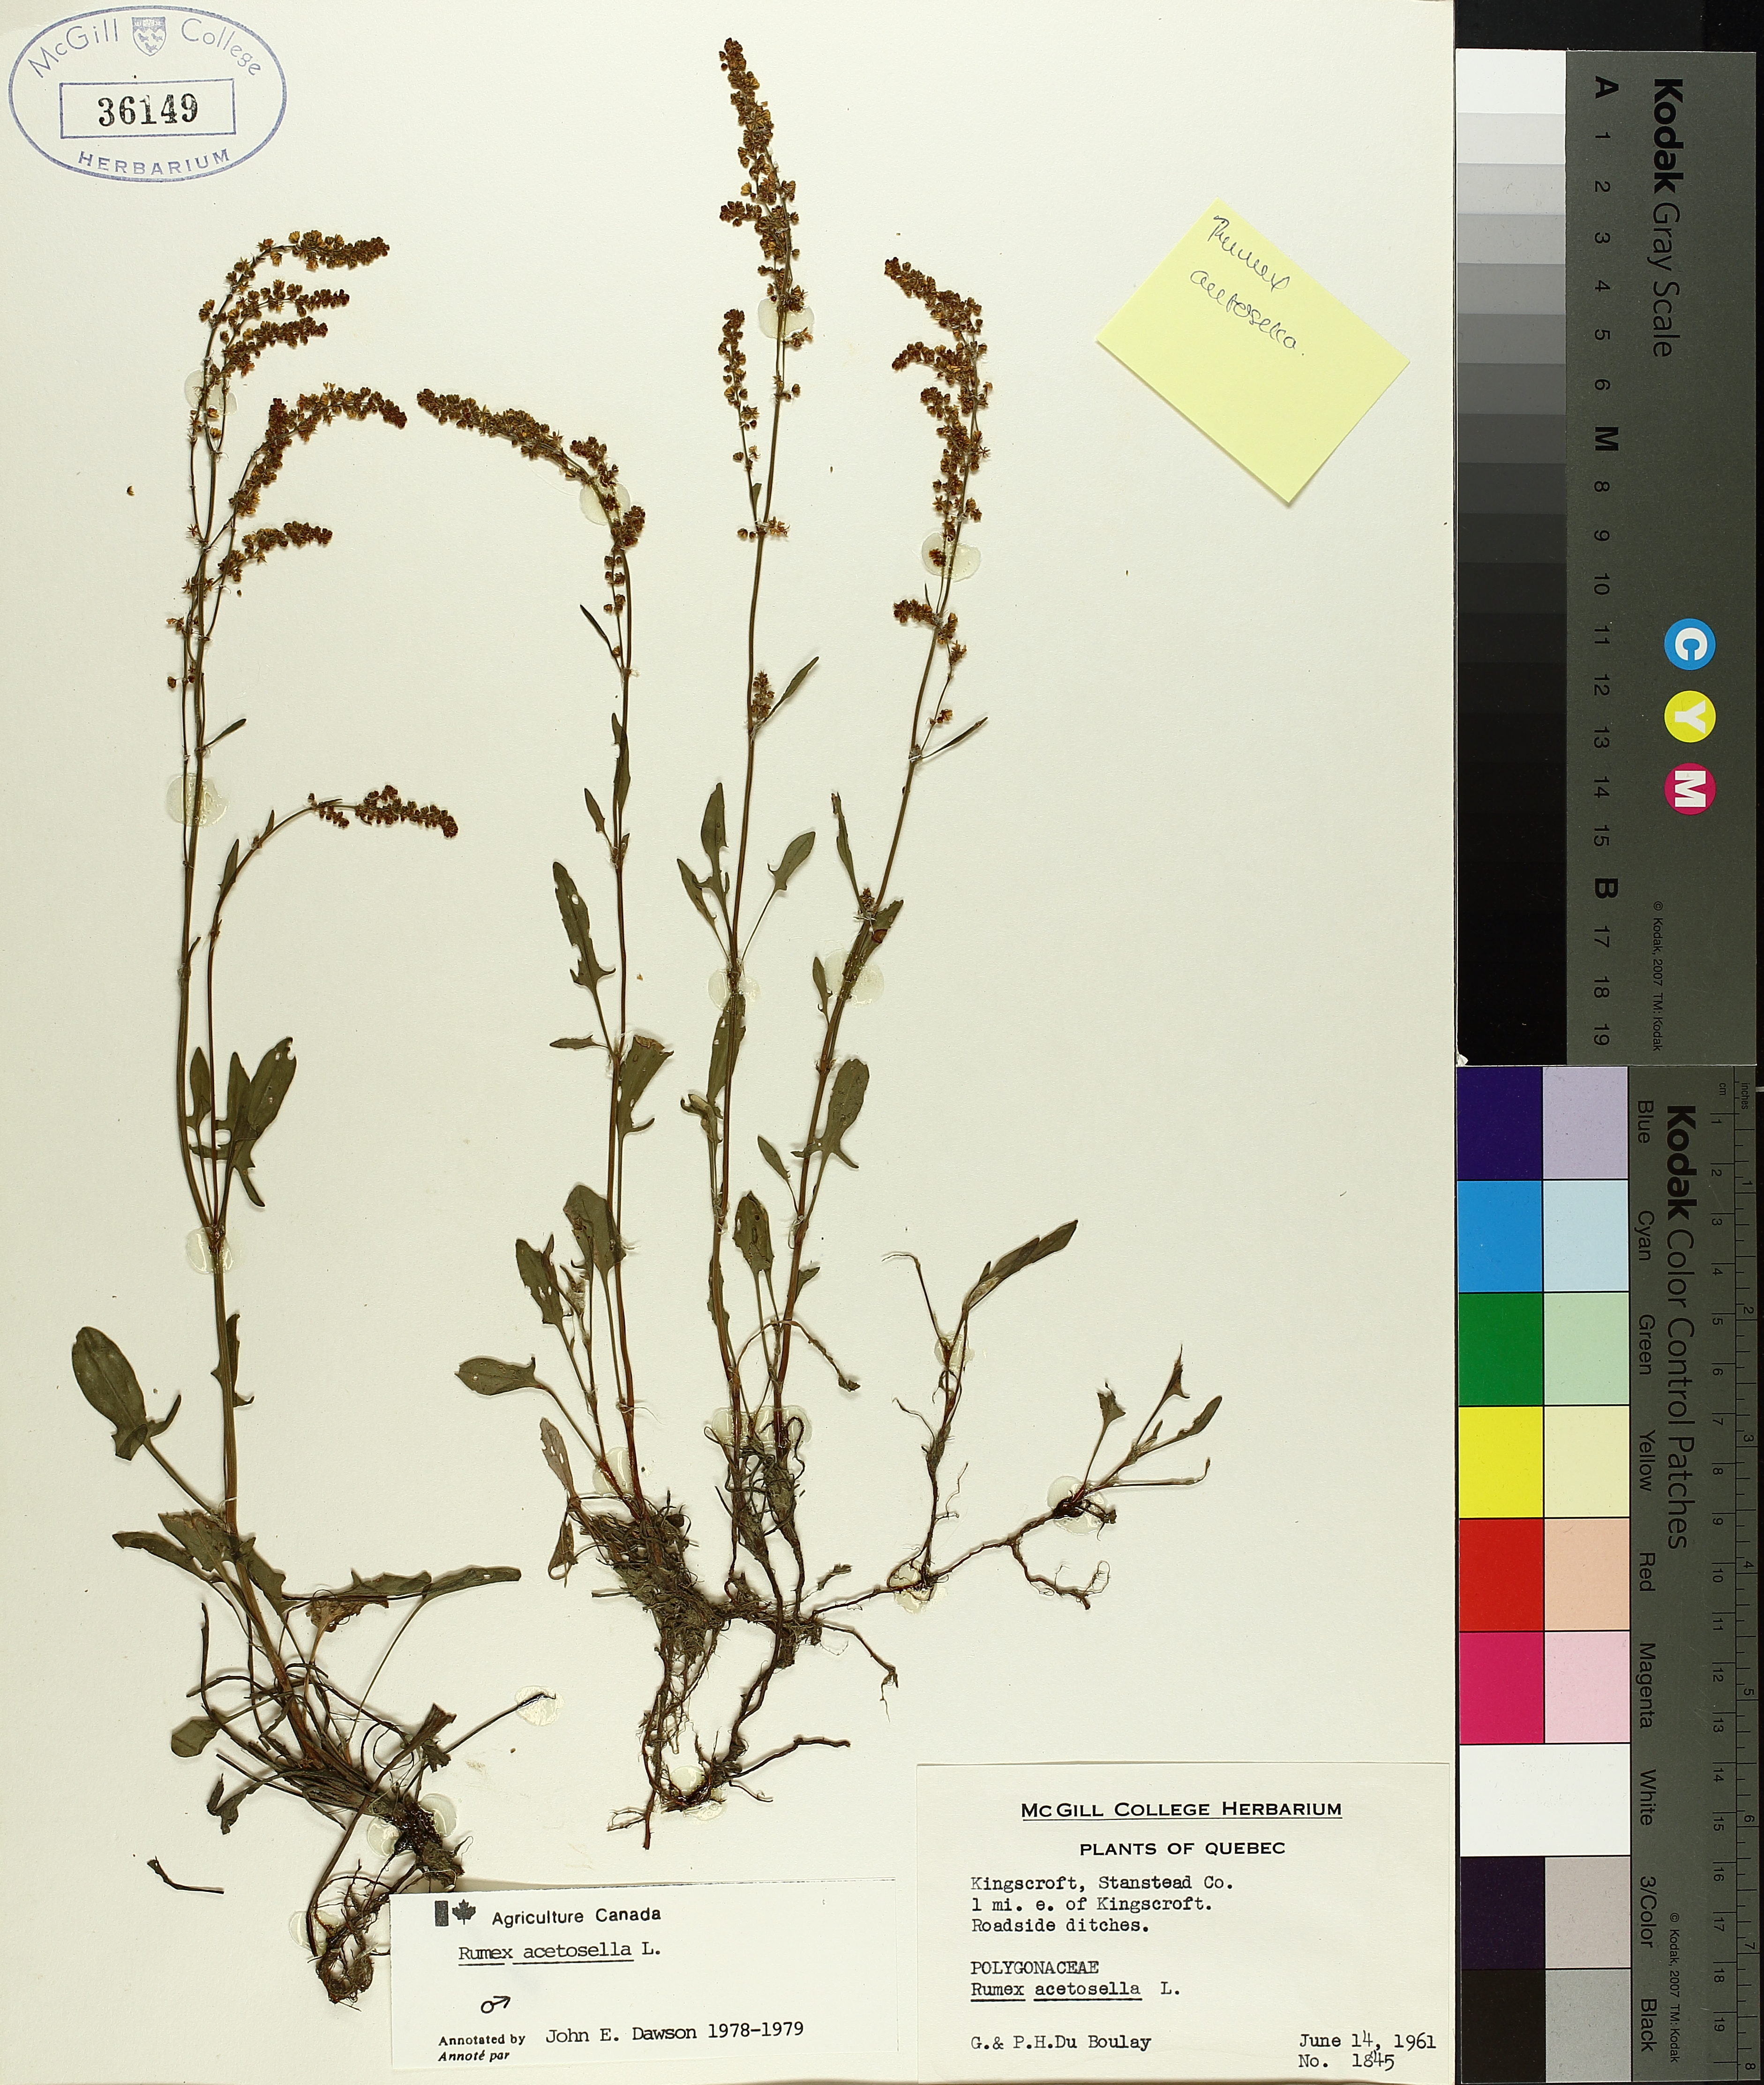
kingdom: Plantae
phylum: Tracheophyta
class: Magnoliopsida
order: Caryophyllales
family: Polygonaceae
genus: Rumex
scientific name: Rumex acetosella
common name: Common sheep sorrel
